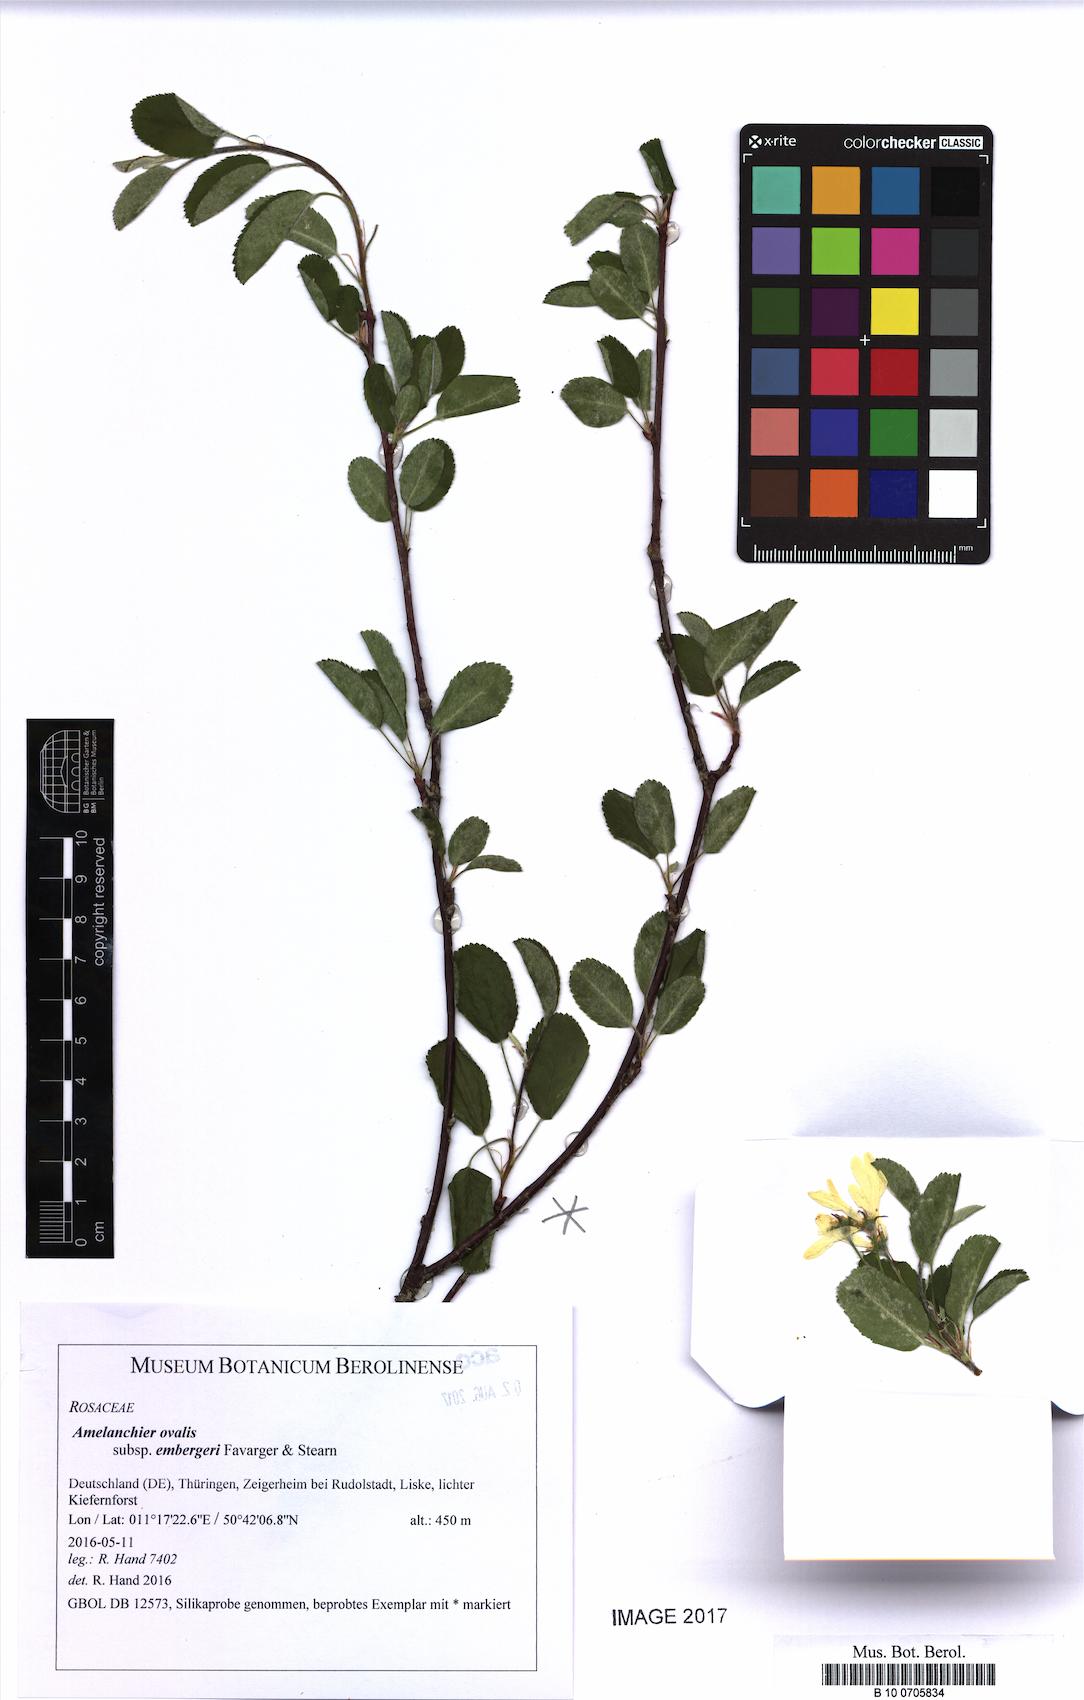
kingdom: Plantae
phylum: Tracheophyta
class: Magnoliopsida
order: Rosales
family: Rosaceae
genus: Amelanchier
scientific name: Amelanchier embergeri
